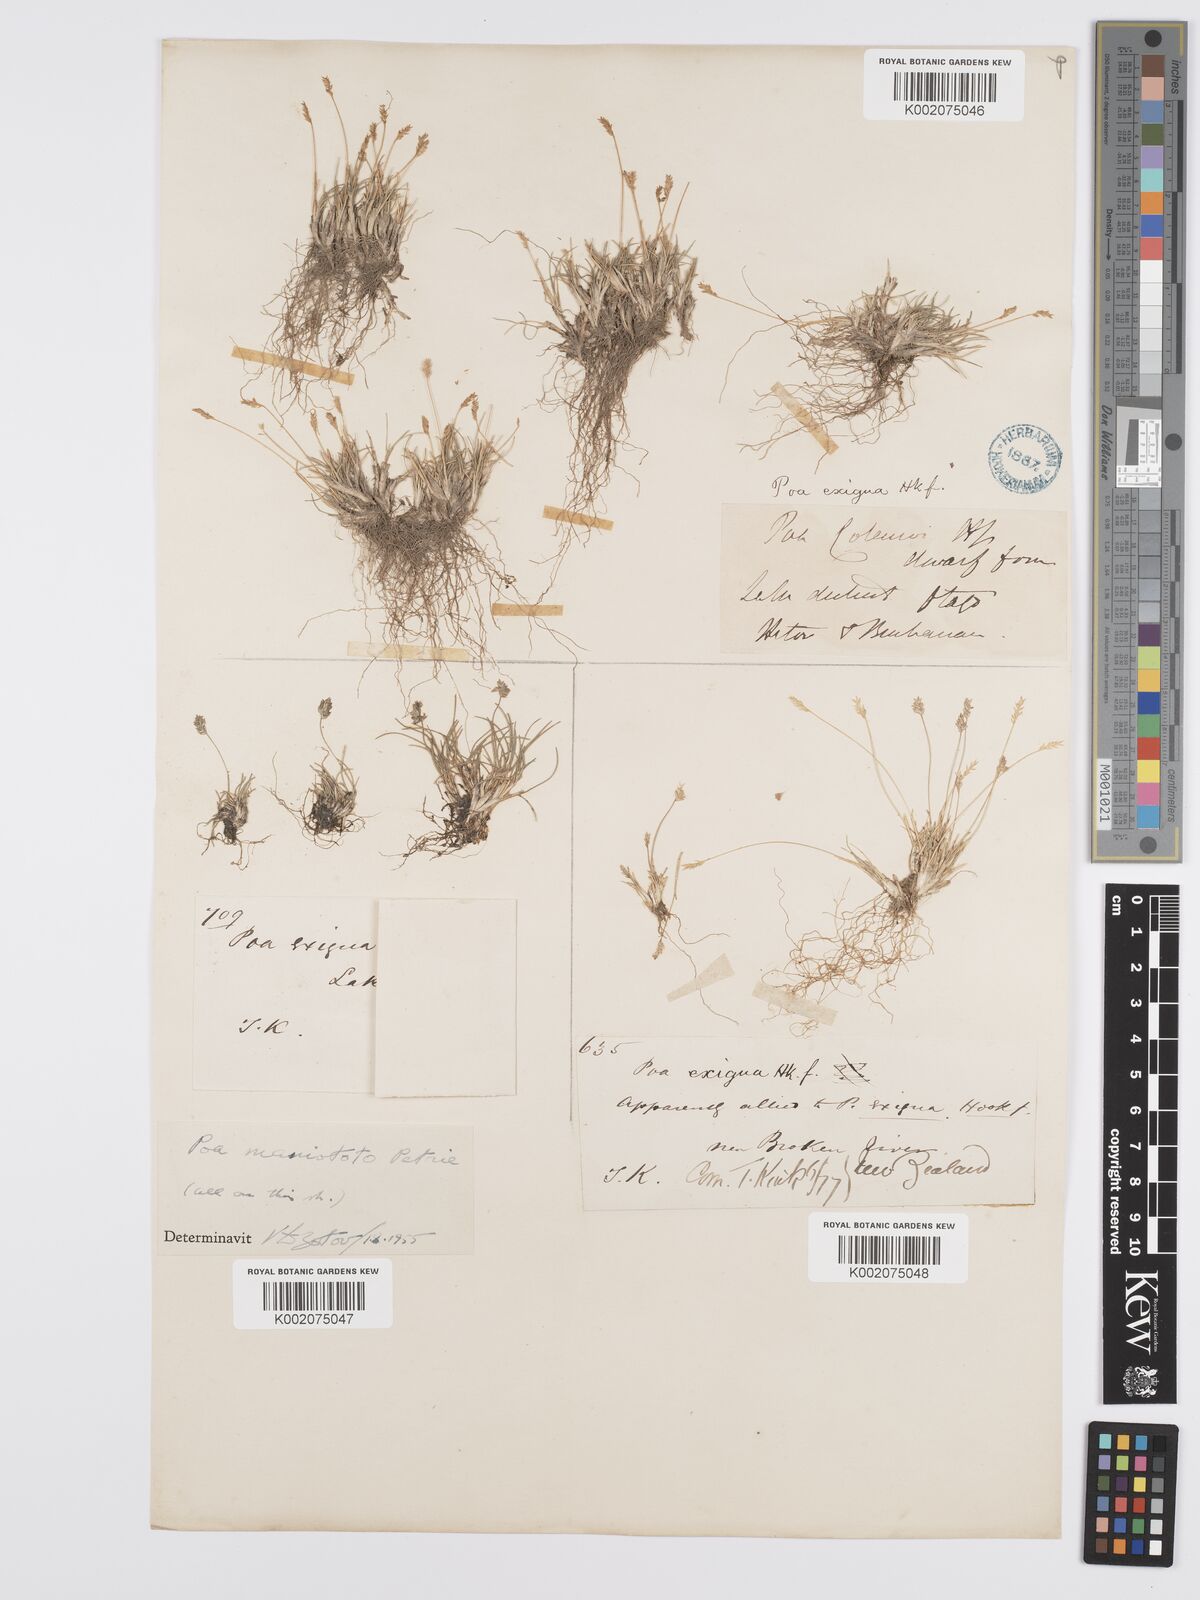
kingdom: Plantae
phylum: Tracheophyta
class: Liliopsida
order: Poales
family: Poaceae
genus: Poa
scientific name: Poa maniototo
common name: Desert poa
